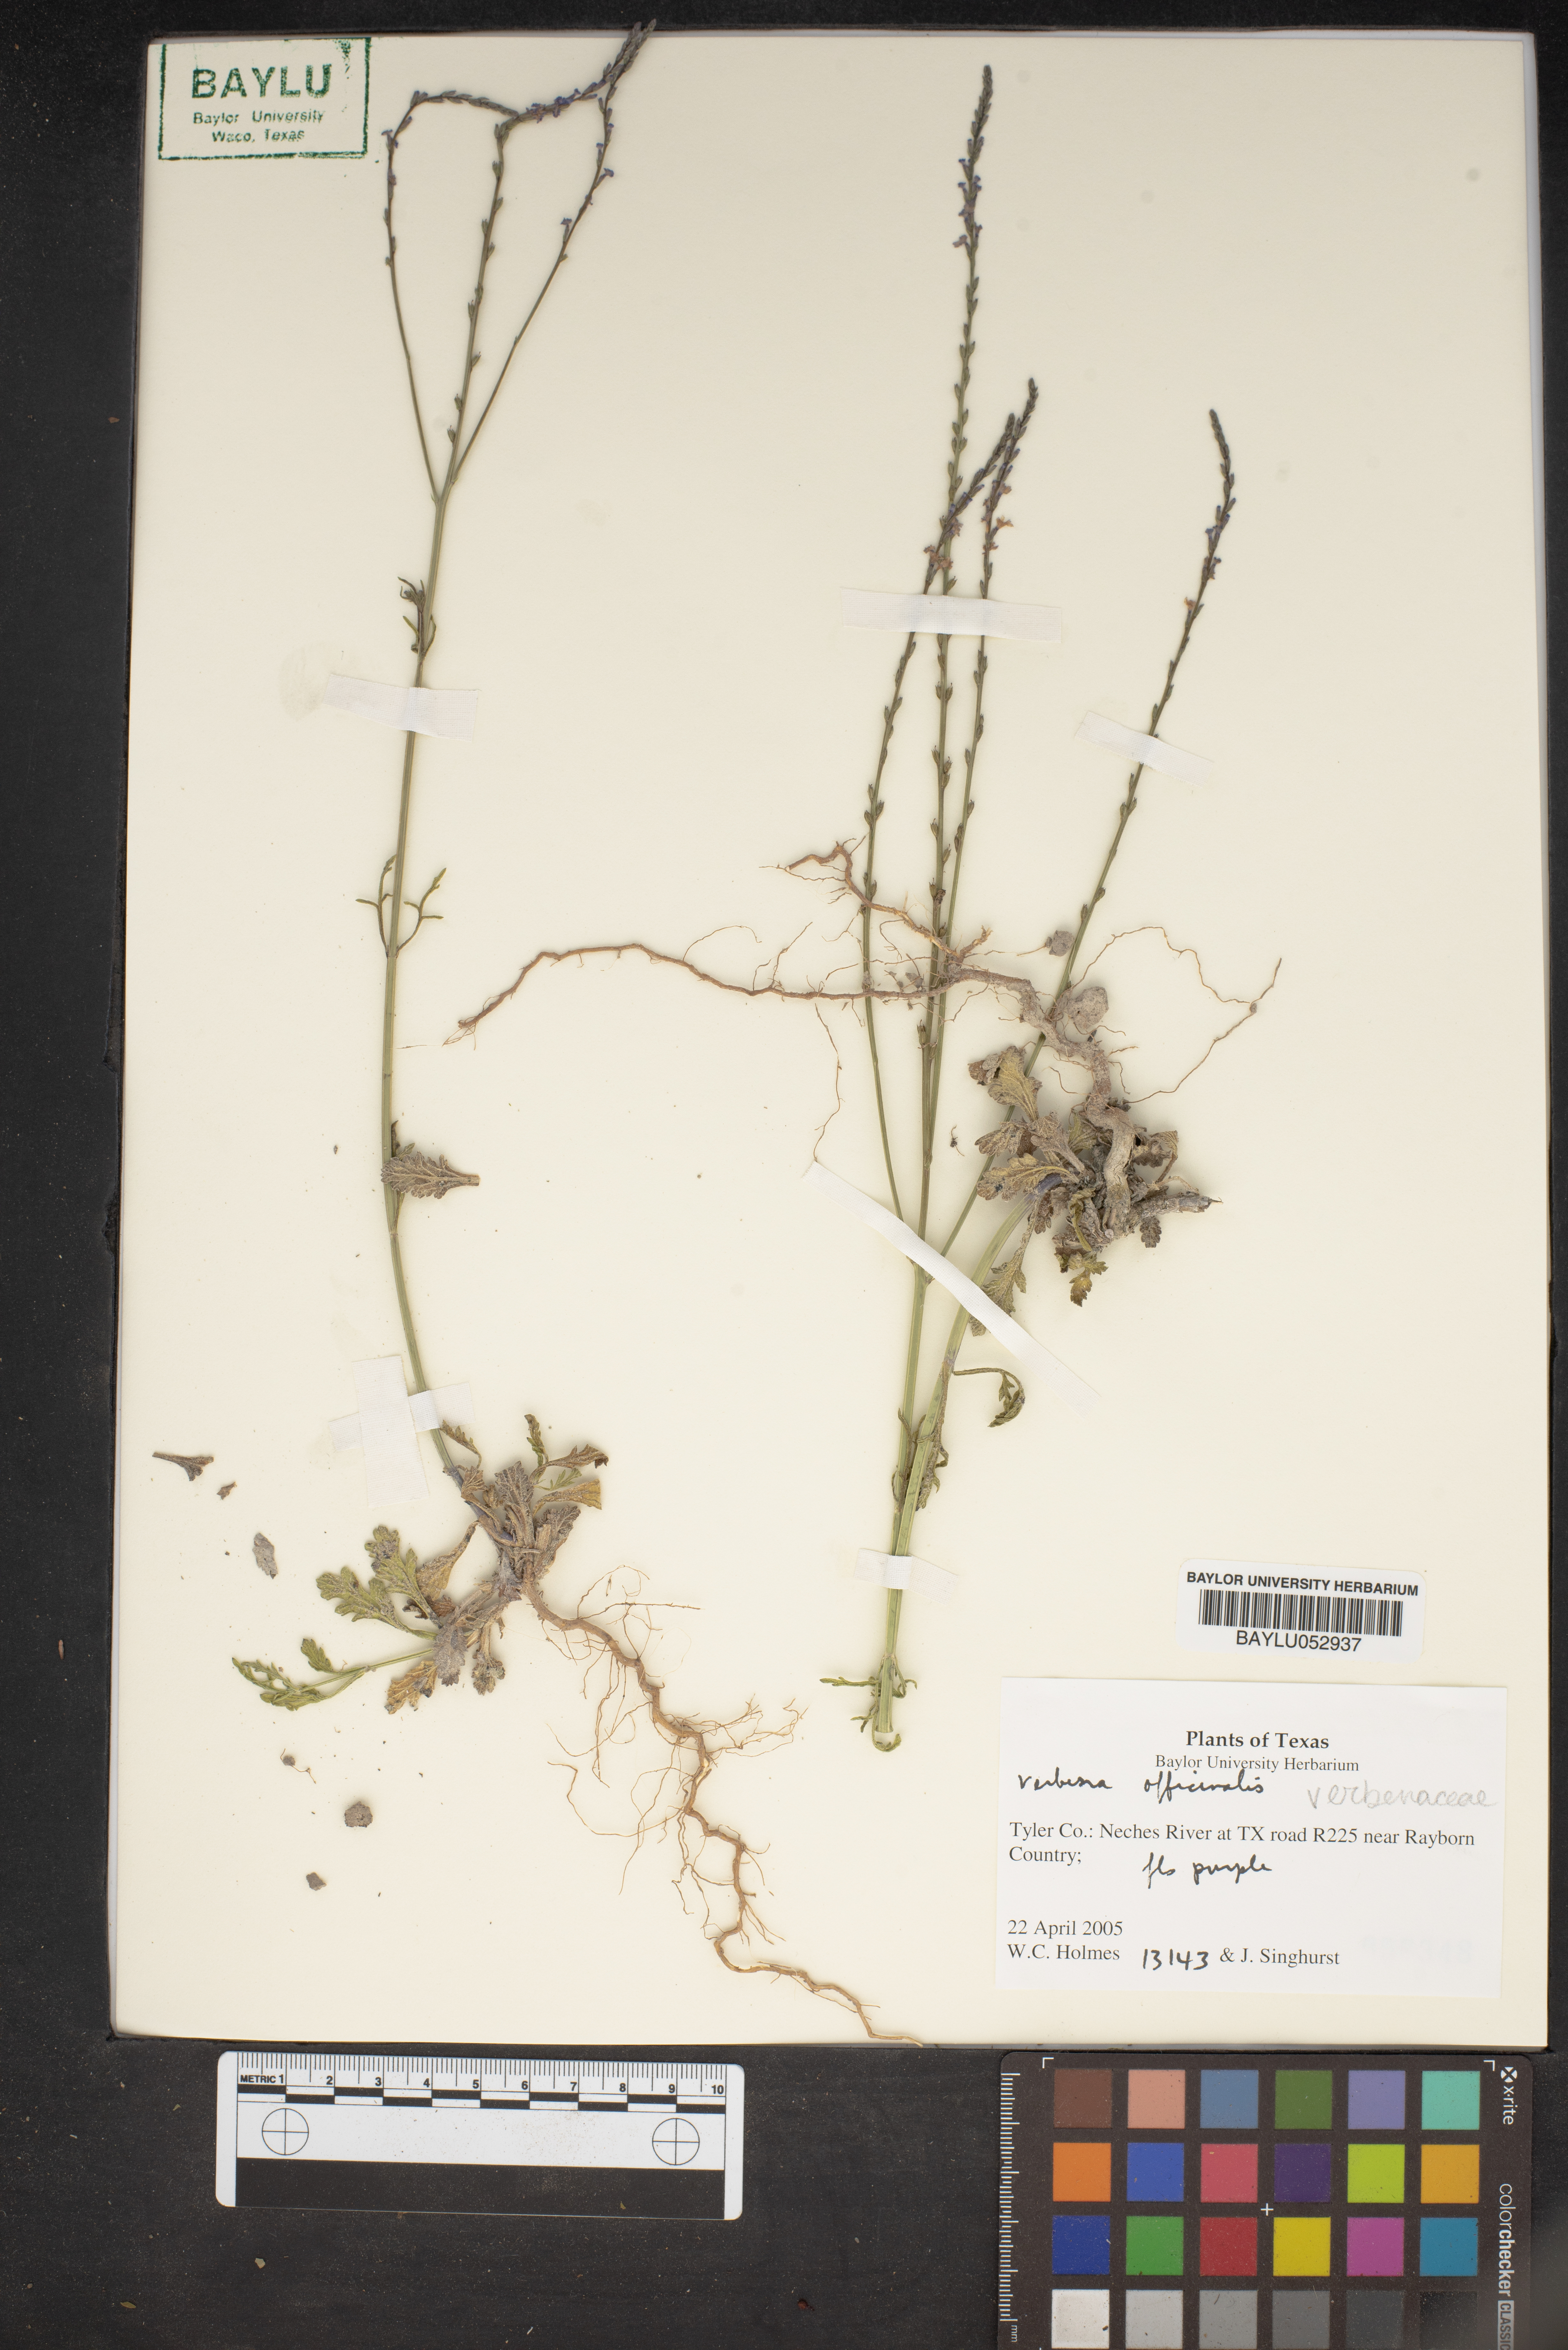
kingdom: Plantae
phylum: Tracheophyta
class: Magnoliopsida
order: Lamiales
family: Verbenaceae
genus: Verbena
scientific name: Verbena officinalis
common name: Vervain
